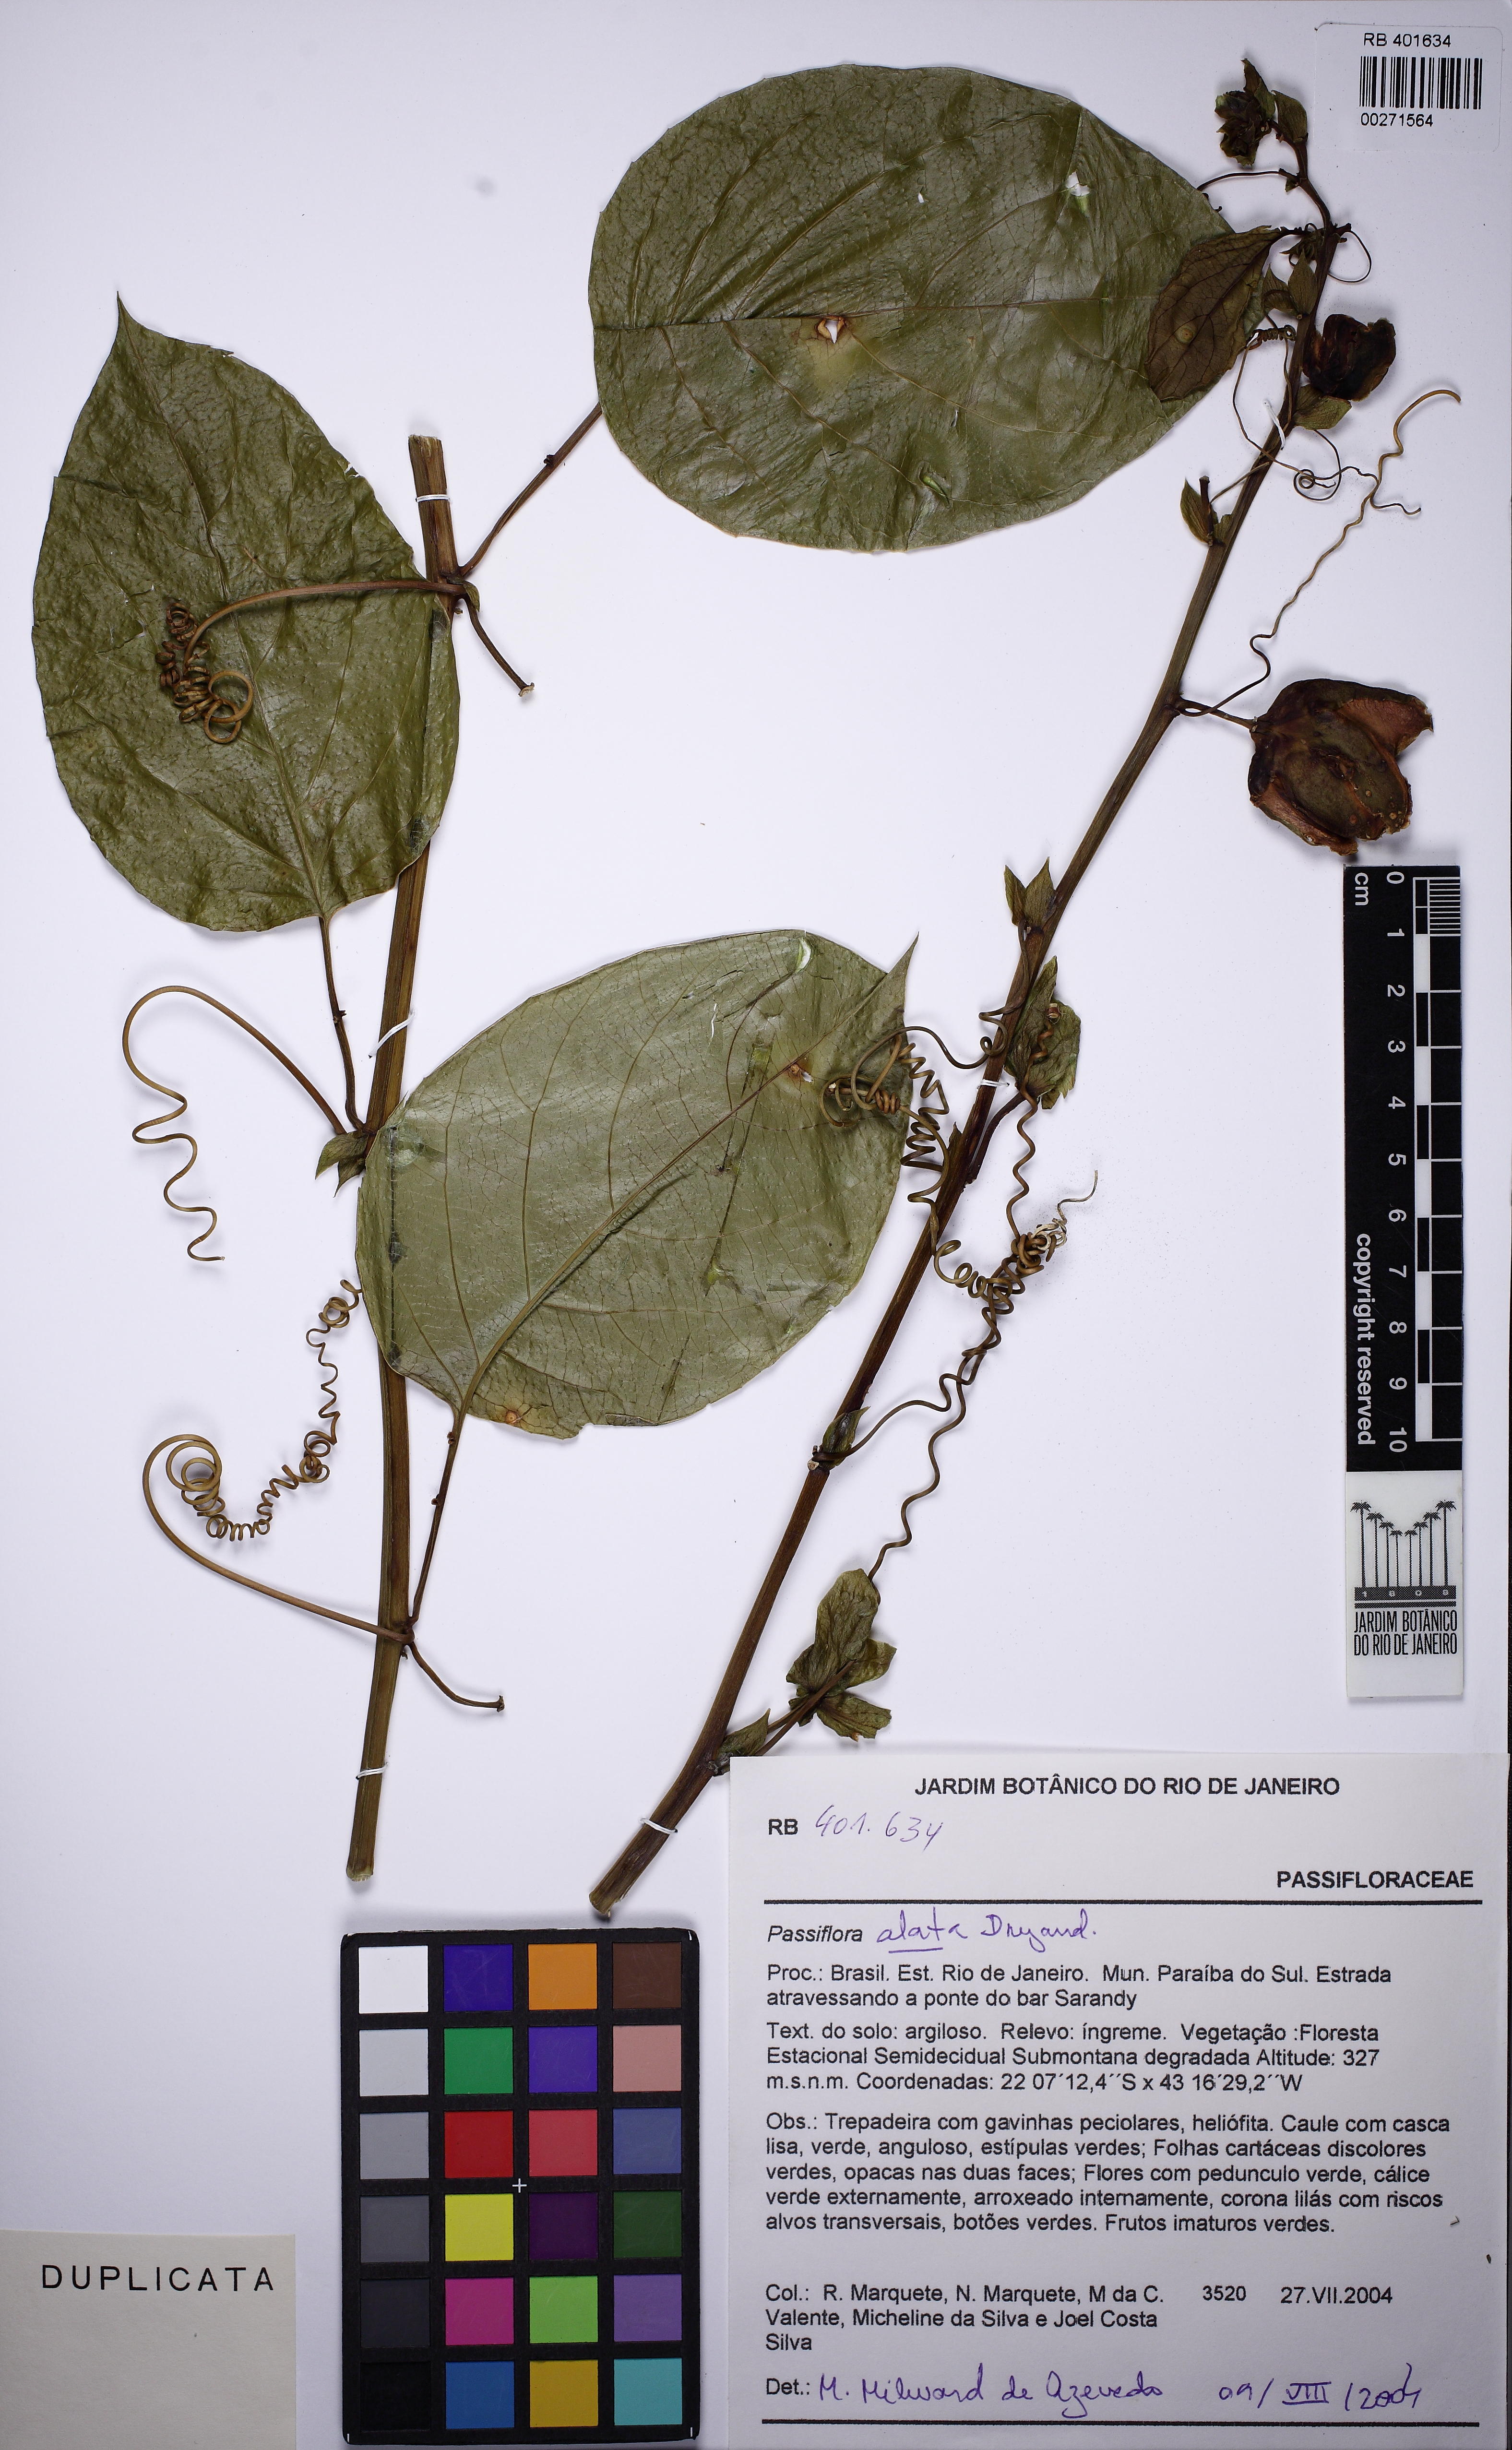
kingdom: Plantae
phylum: Tracheophyta
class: Magnoliopsida
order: Malpighiales
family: Passifloraceae
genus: Passiflora
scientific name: Passiflora alata
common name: Wing-stemmed passion flower
